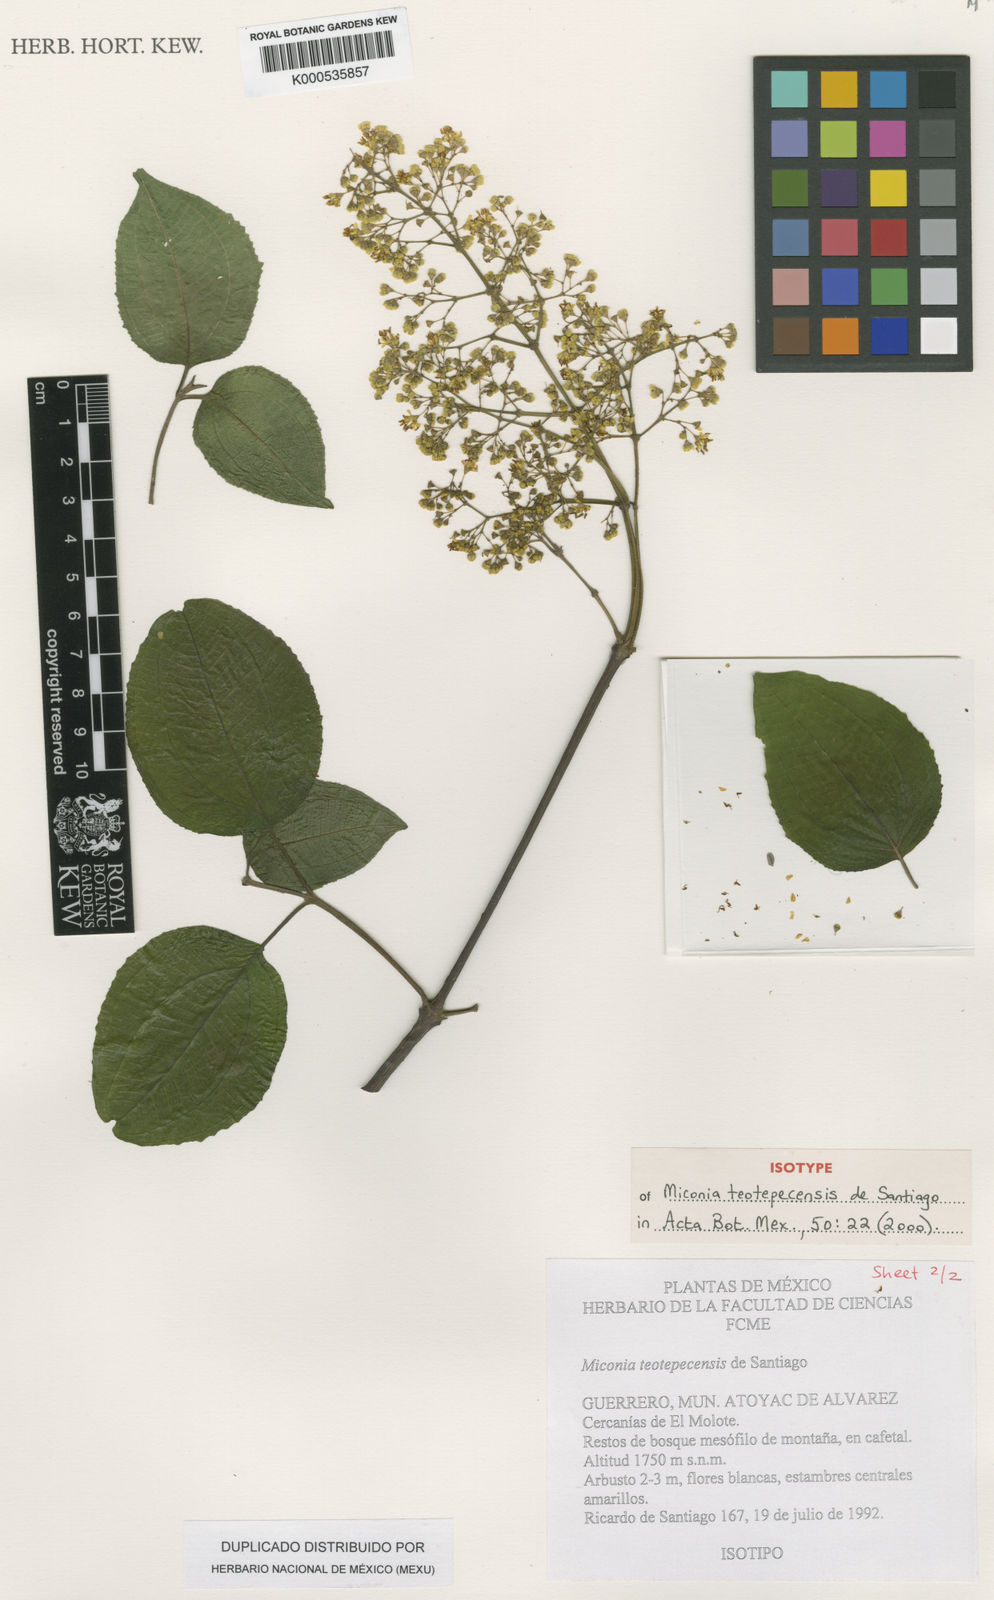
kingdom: Plantae
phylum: Tracheophyta
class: Magnoliopsida
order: Myrtales
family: Melastomataceae
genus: Miconia
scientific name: Miconia teotepecensis
